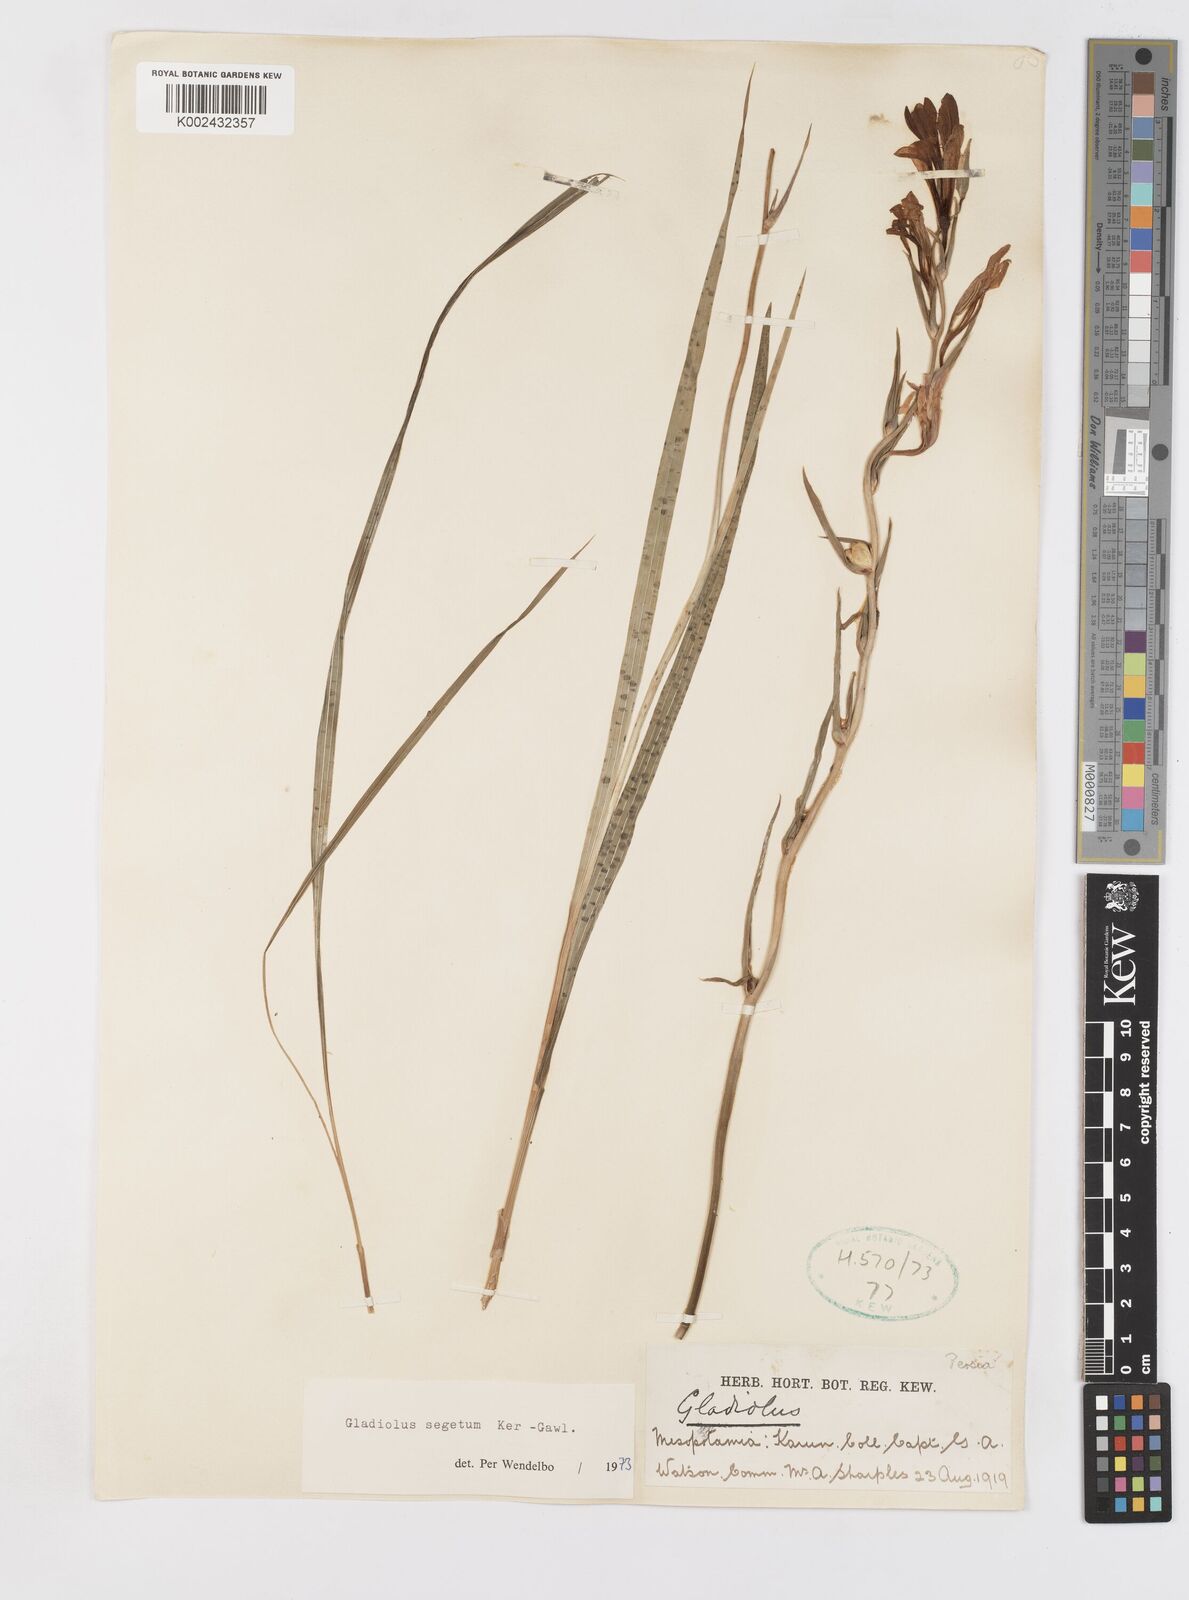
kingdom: Plantae
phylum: Tracheophyta
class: Liliopsida
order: Asparagales
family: Iridaceae
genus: Gladiolus
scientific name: Gladiolus italicus
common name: Field gladiolus
